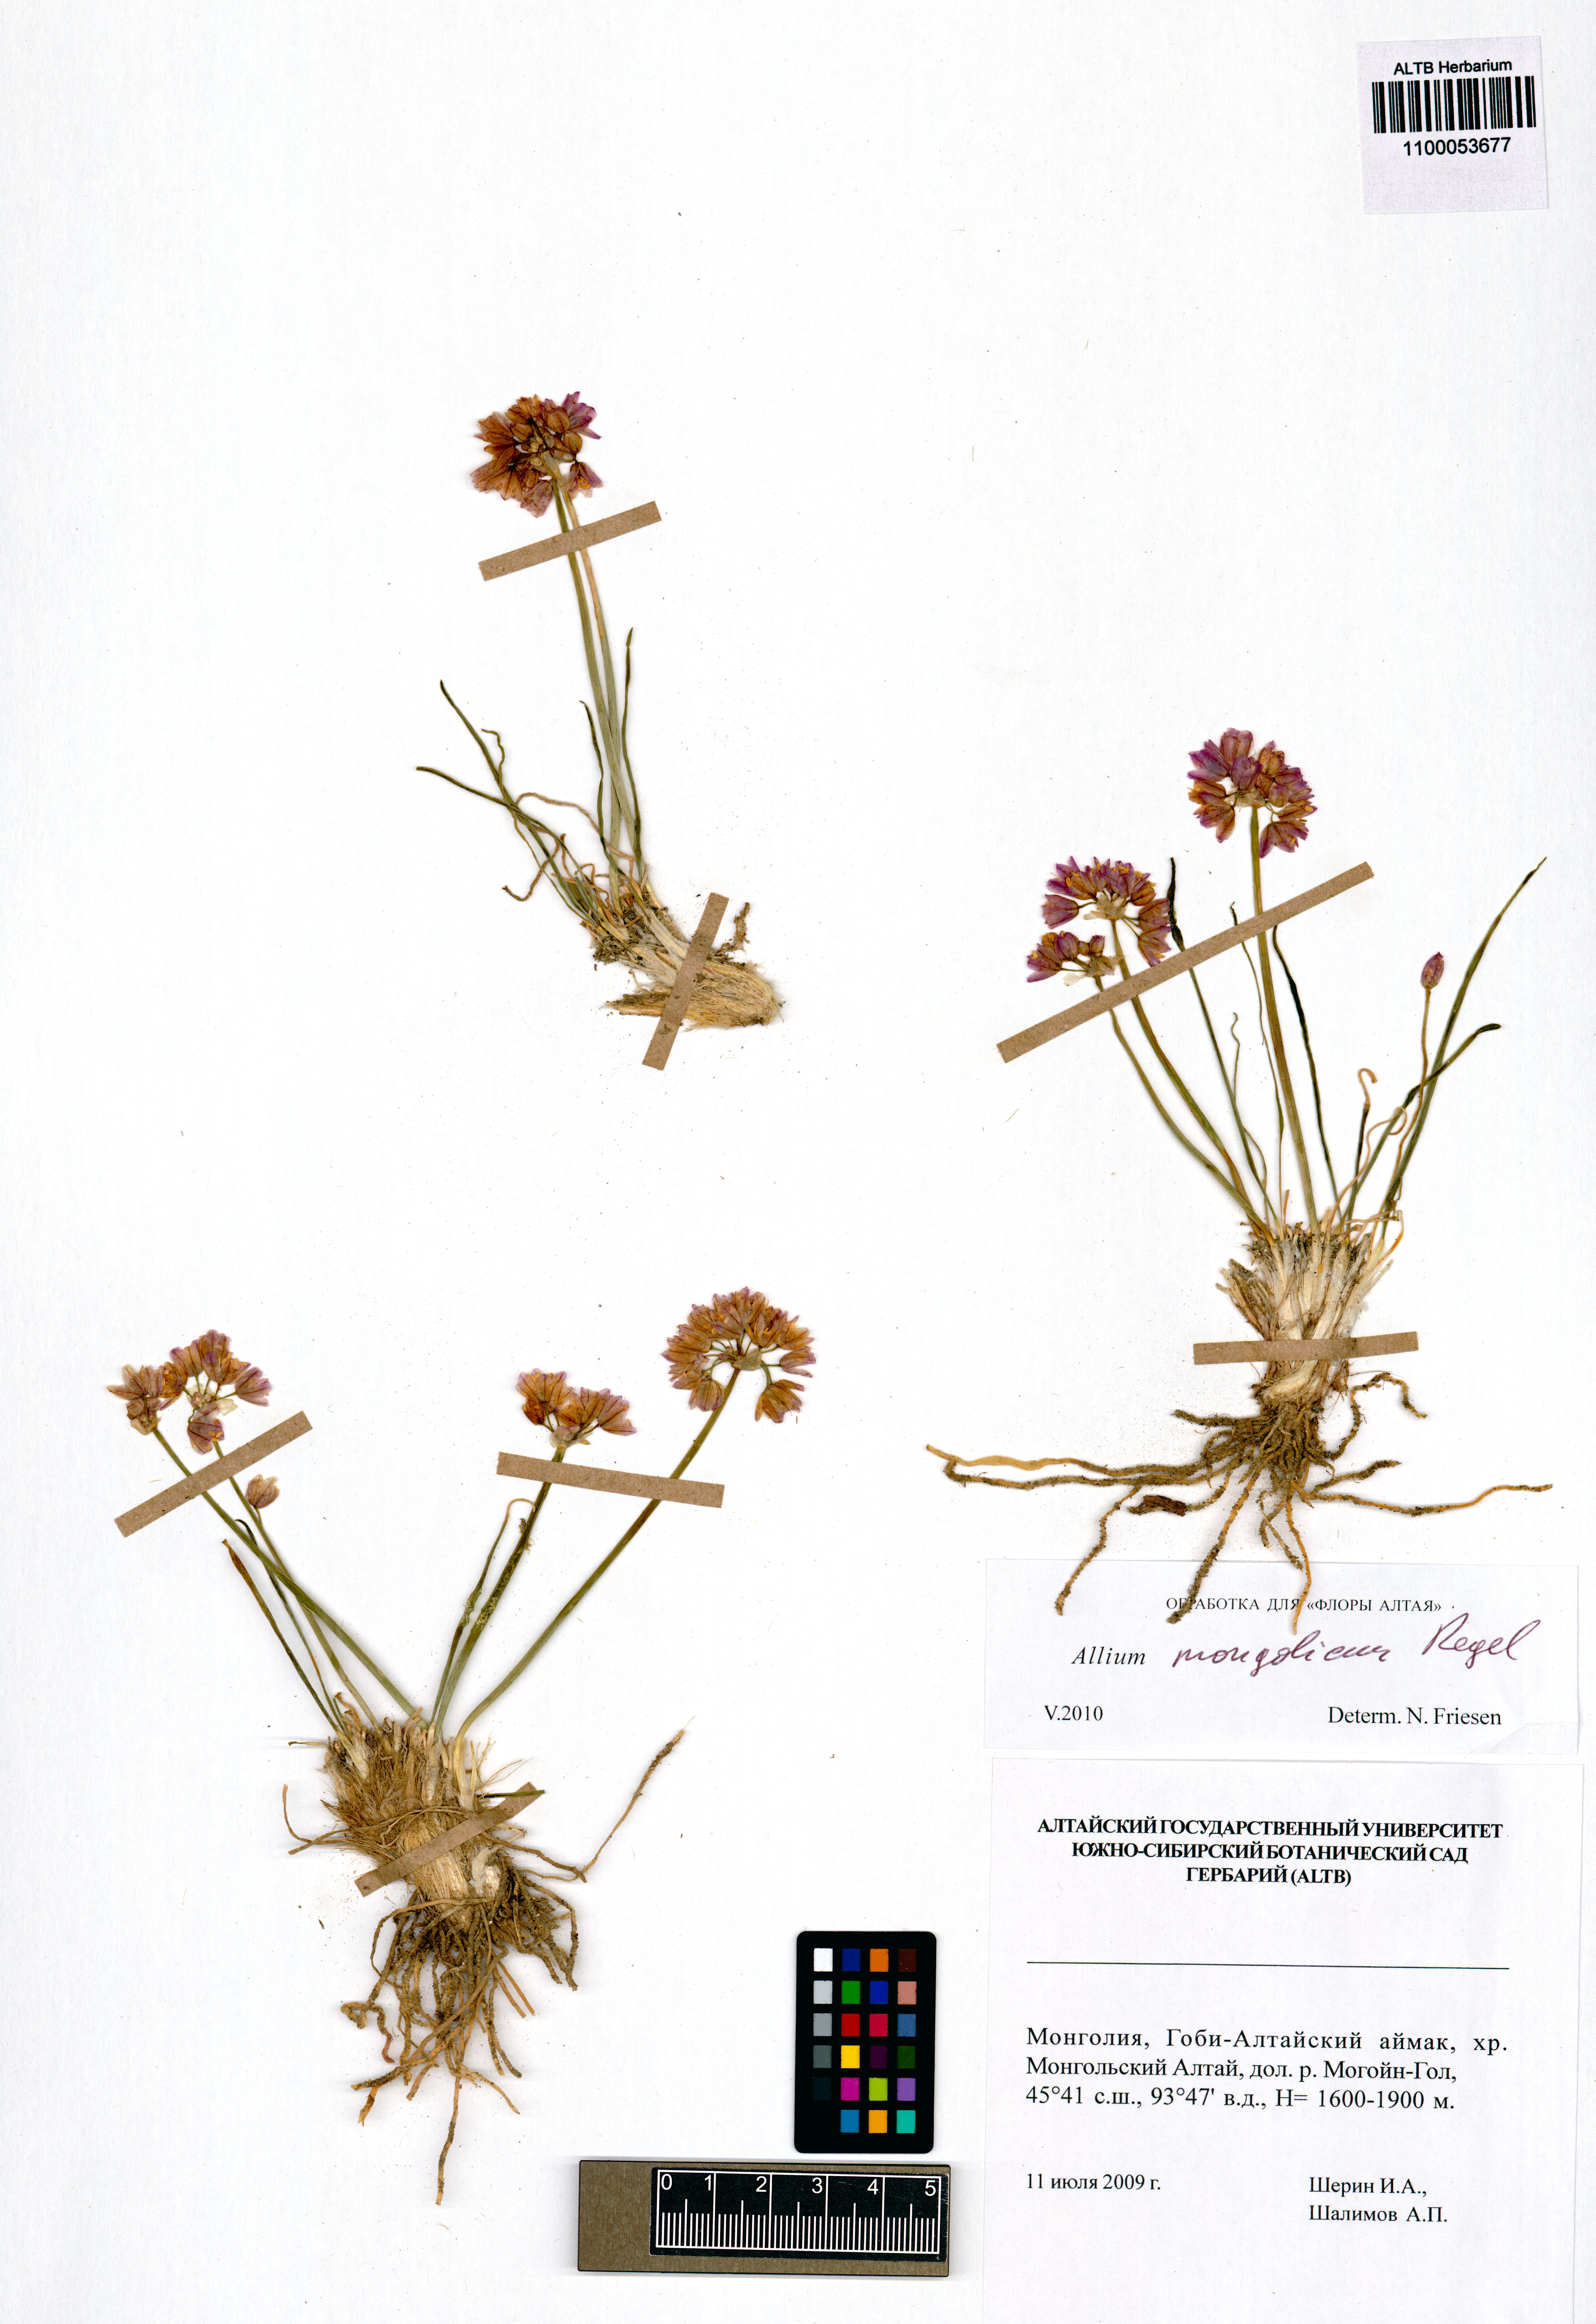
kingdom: Plantae
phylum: Tracheophyta
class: Liliopsida
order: Asparagales
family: Amaryllidaceae
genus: Allium
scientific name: Allium mongolicum
